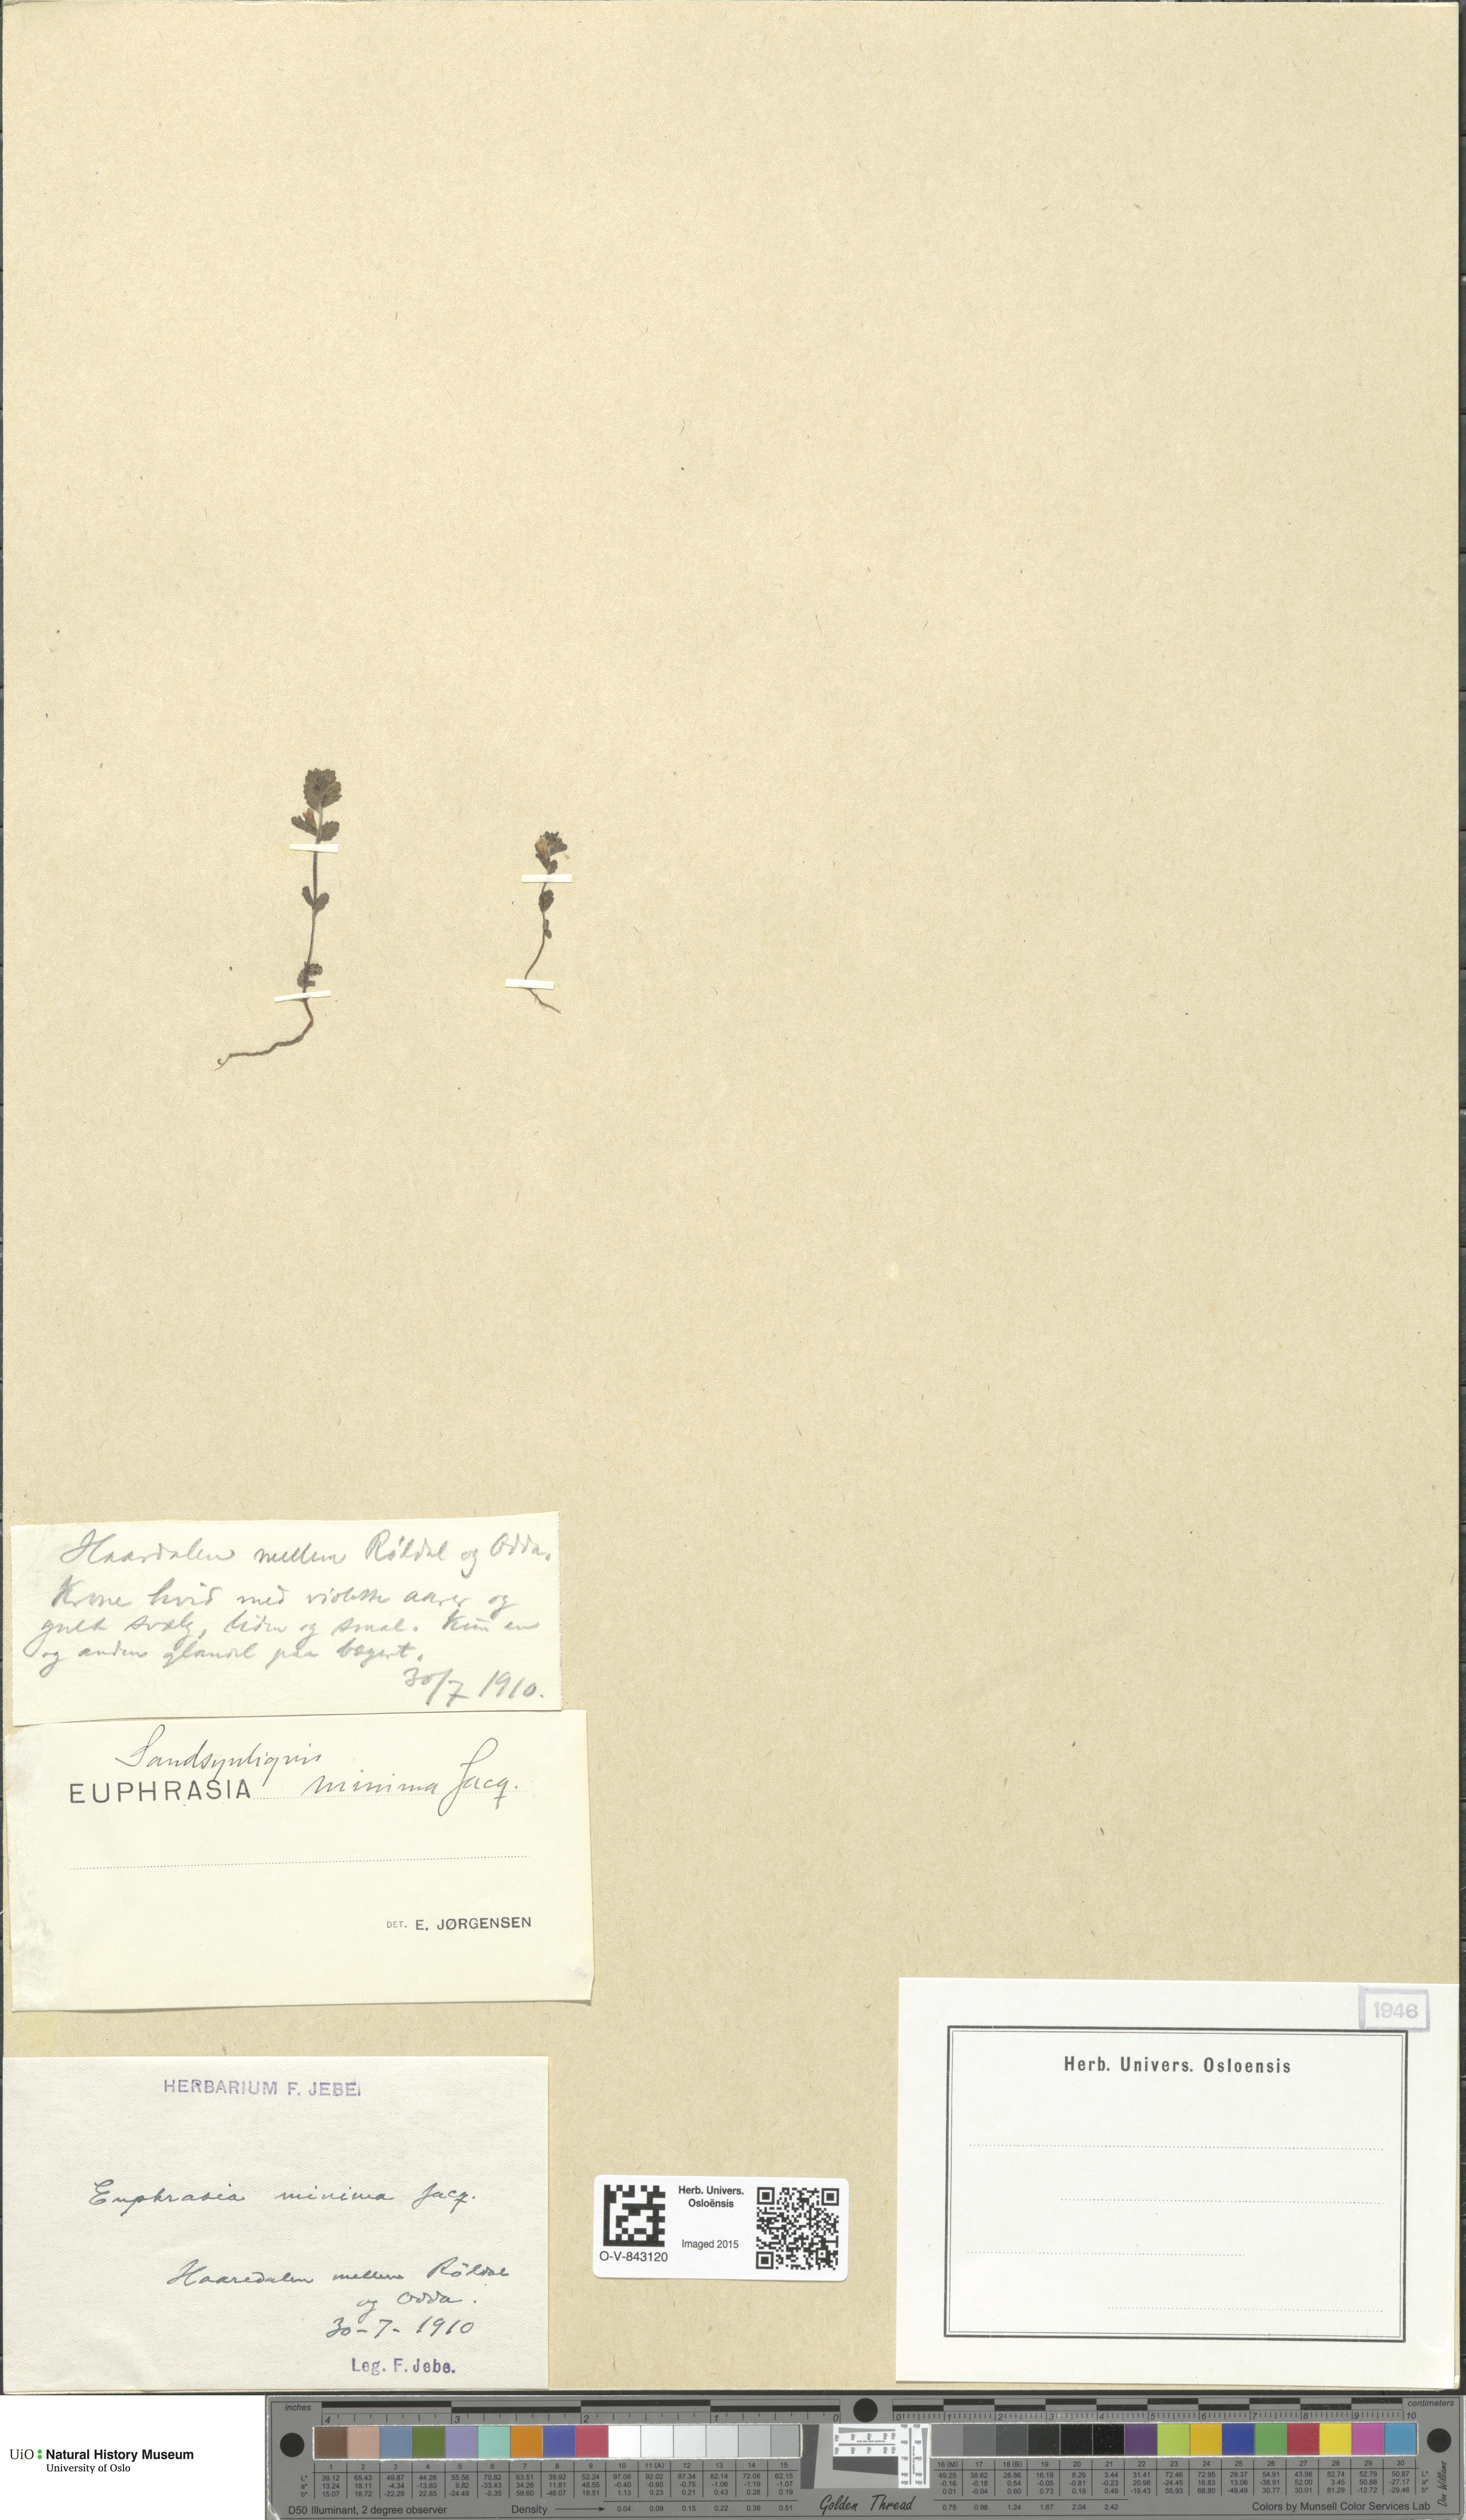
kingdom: Plantae
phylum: Tracheophyta
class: Magnoliopsida
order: Lamiales
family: Orobanchaceae
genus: Euphrasia
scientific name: Euphrasia wettsteinii
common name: Wettstein's eyebright
